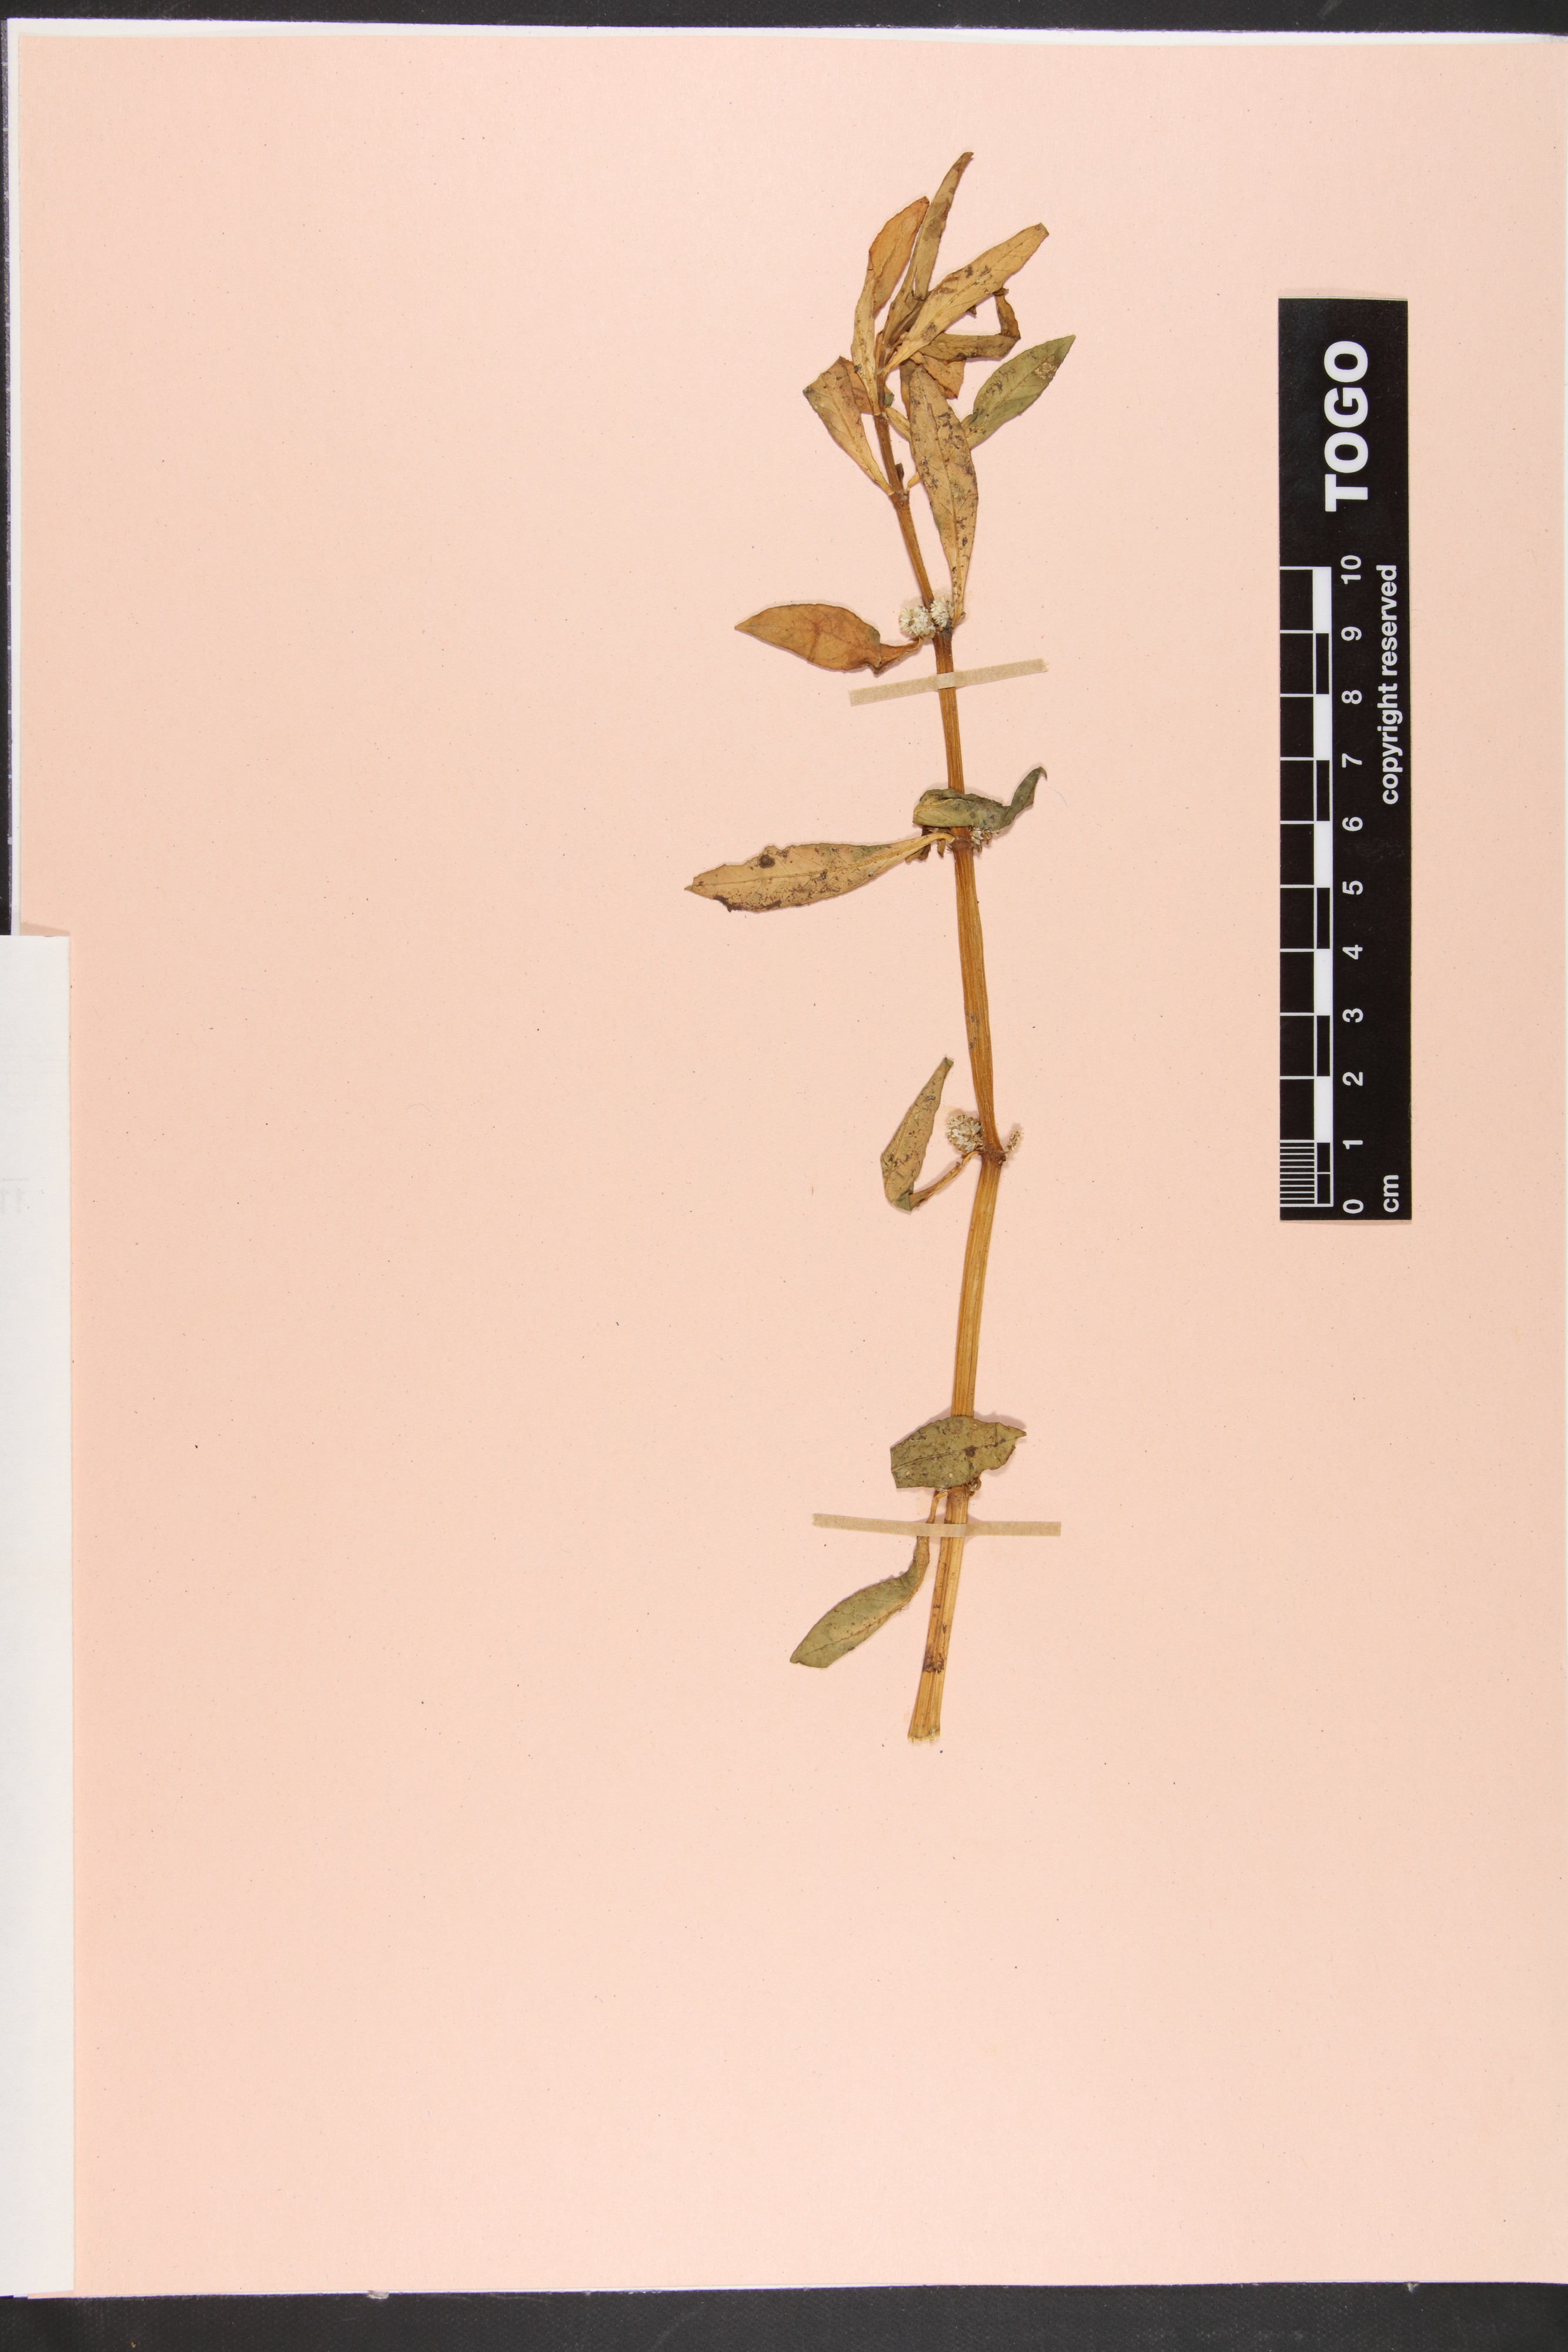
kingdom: Plantae
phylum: Tracheophyta
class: Magnoliopsida
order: Caryophyllales
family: Amaranthaceae
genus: Alternanthera
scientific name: Alternanthera sessilis
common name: Sessile joyweed
